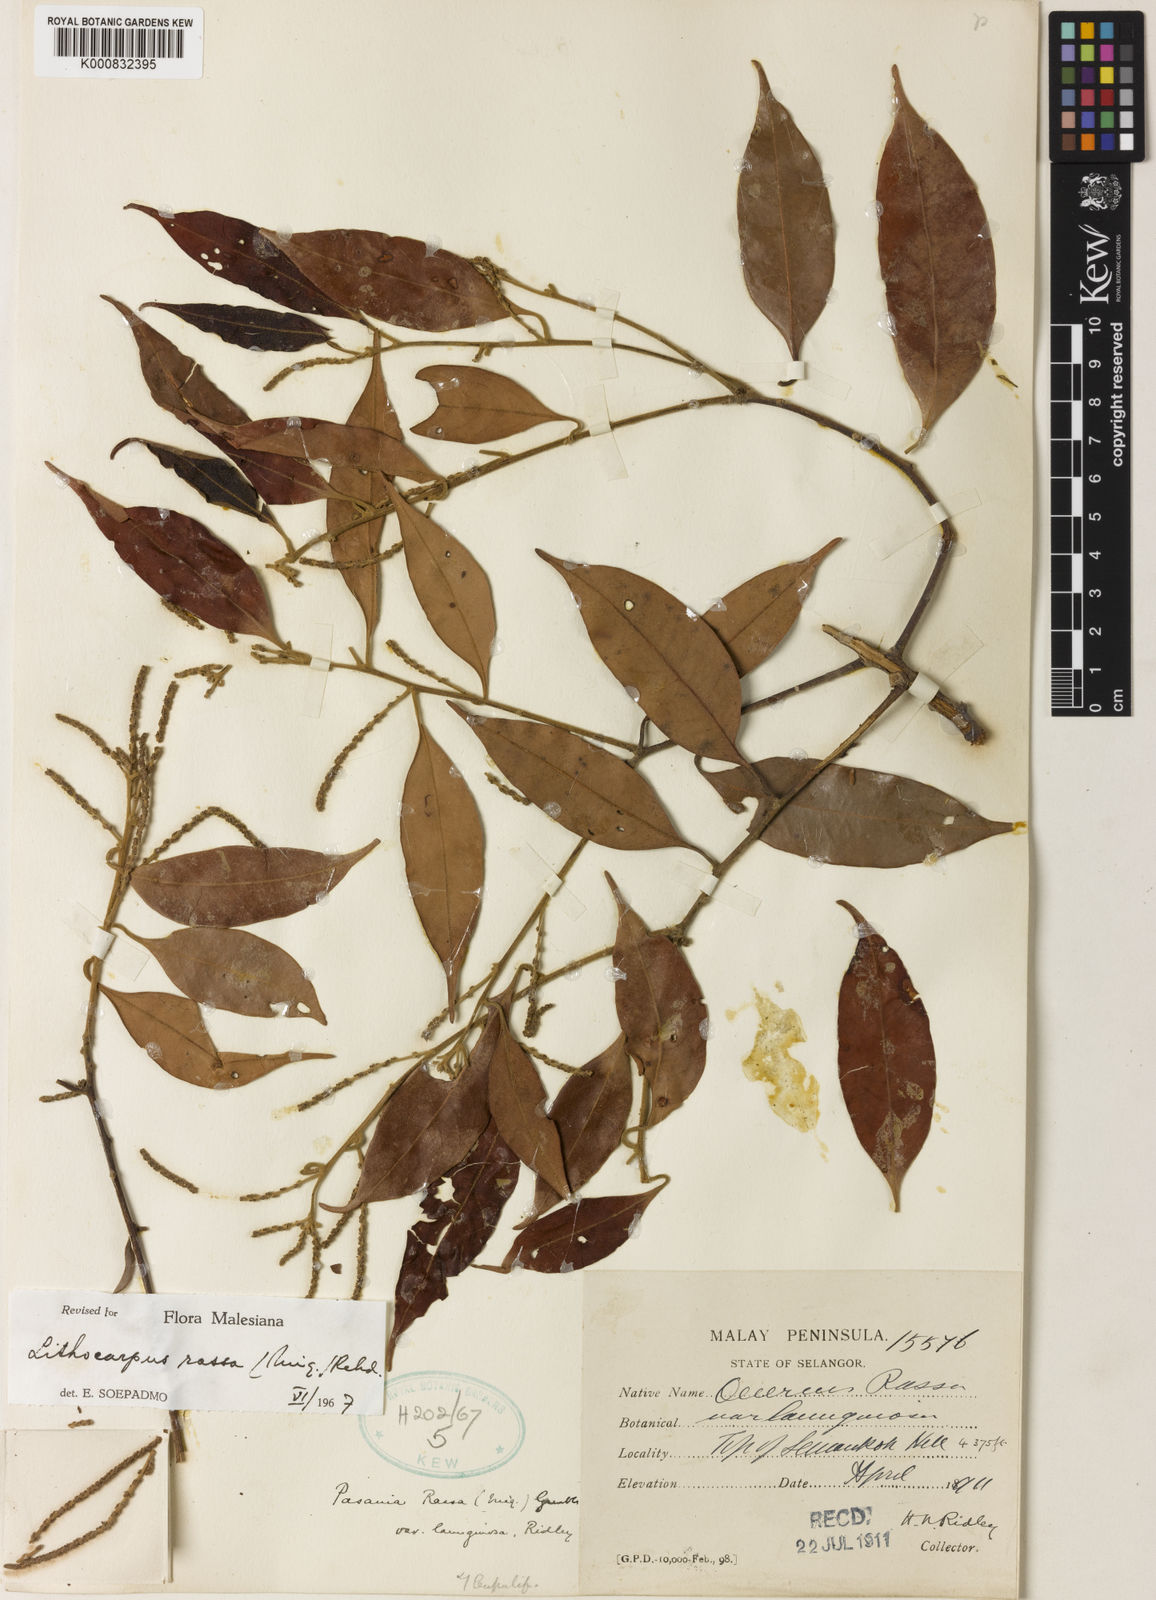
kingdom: Plantae
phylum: Tracheophyta
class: Magnoliopsida
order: Fagales
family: Fagaceae
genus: Lithocarpus
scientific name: Lithocarpus rassa
